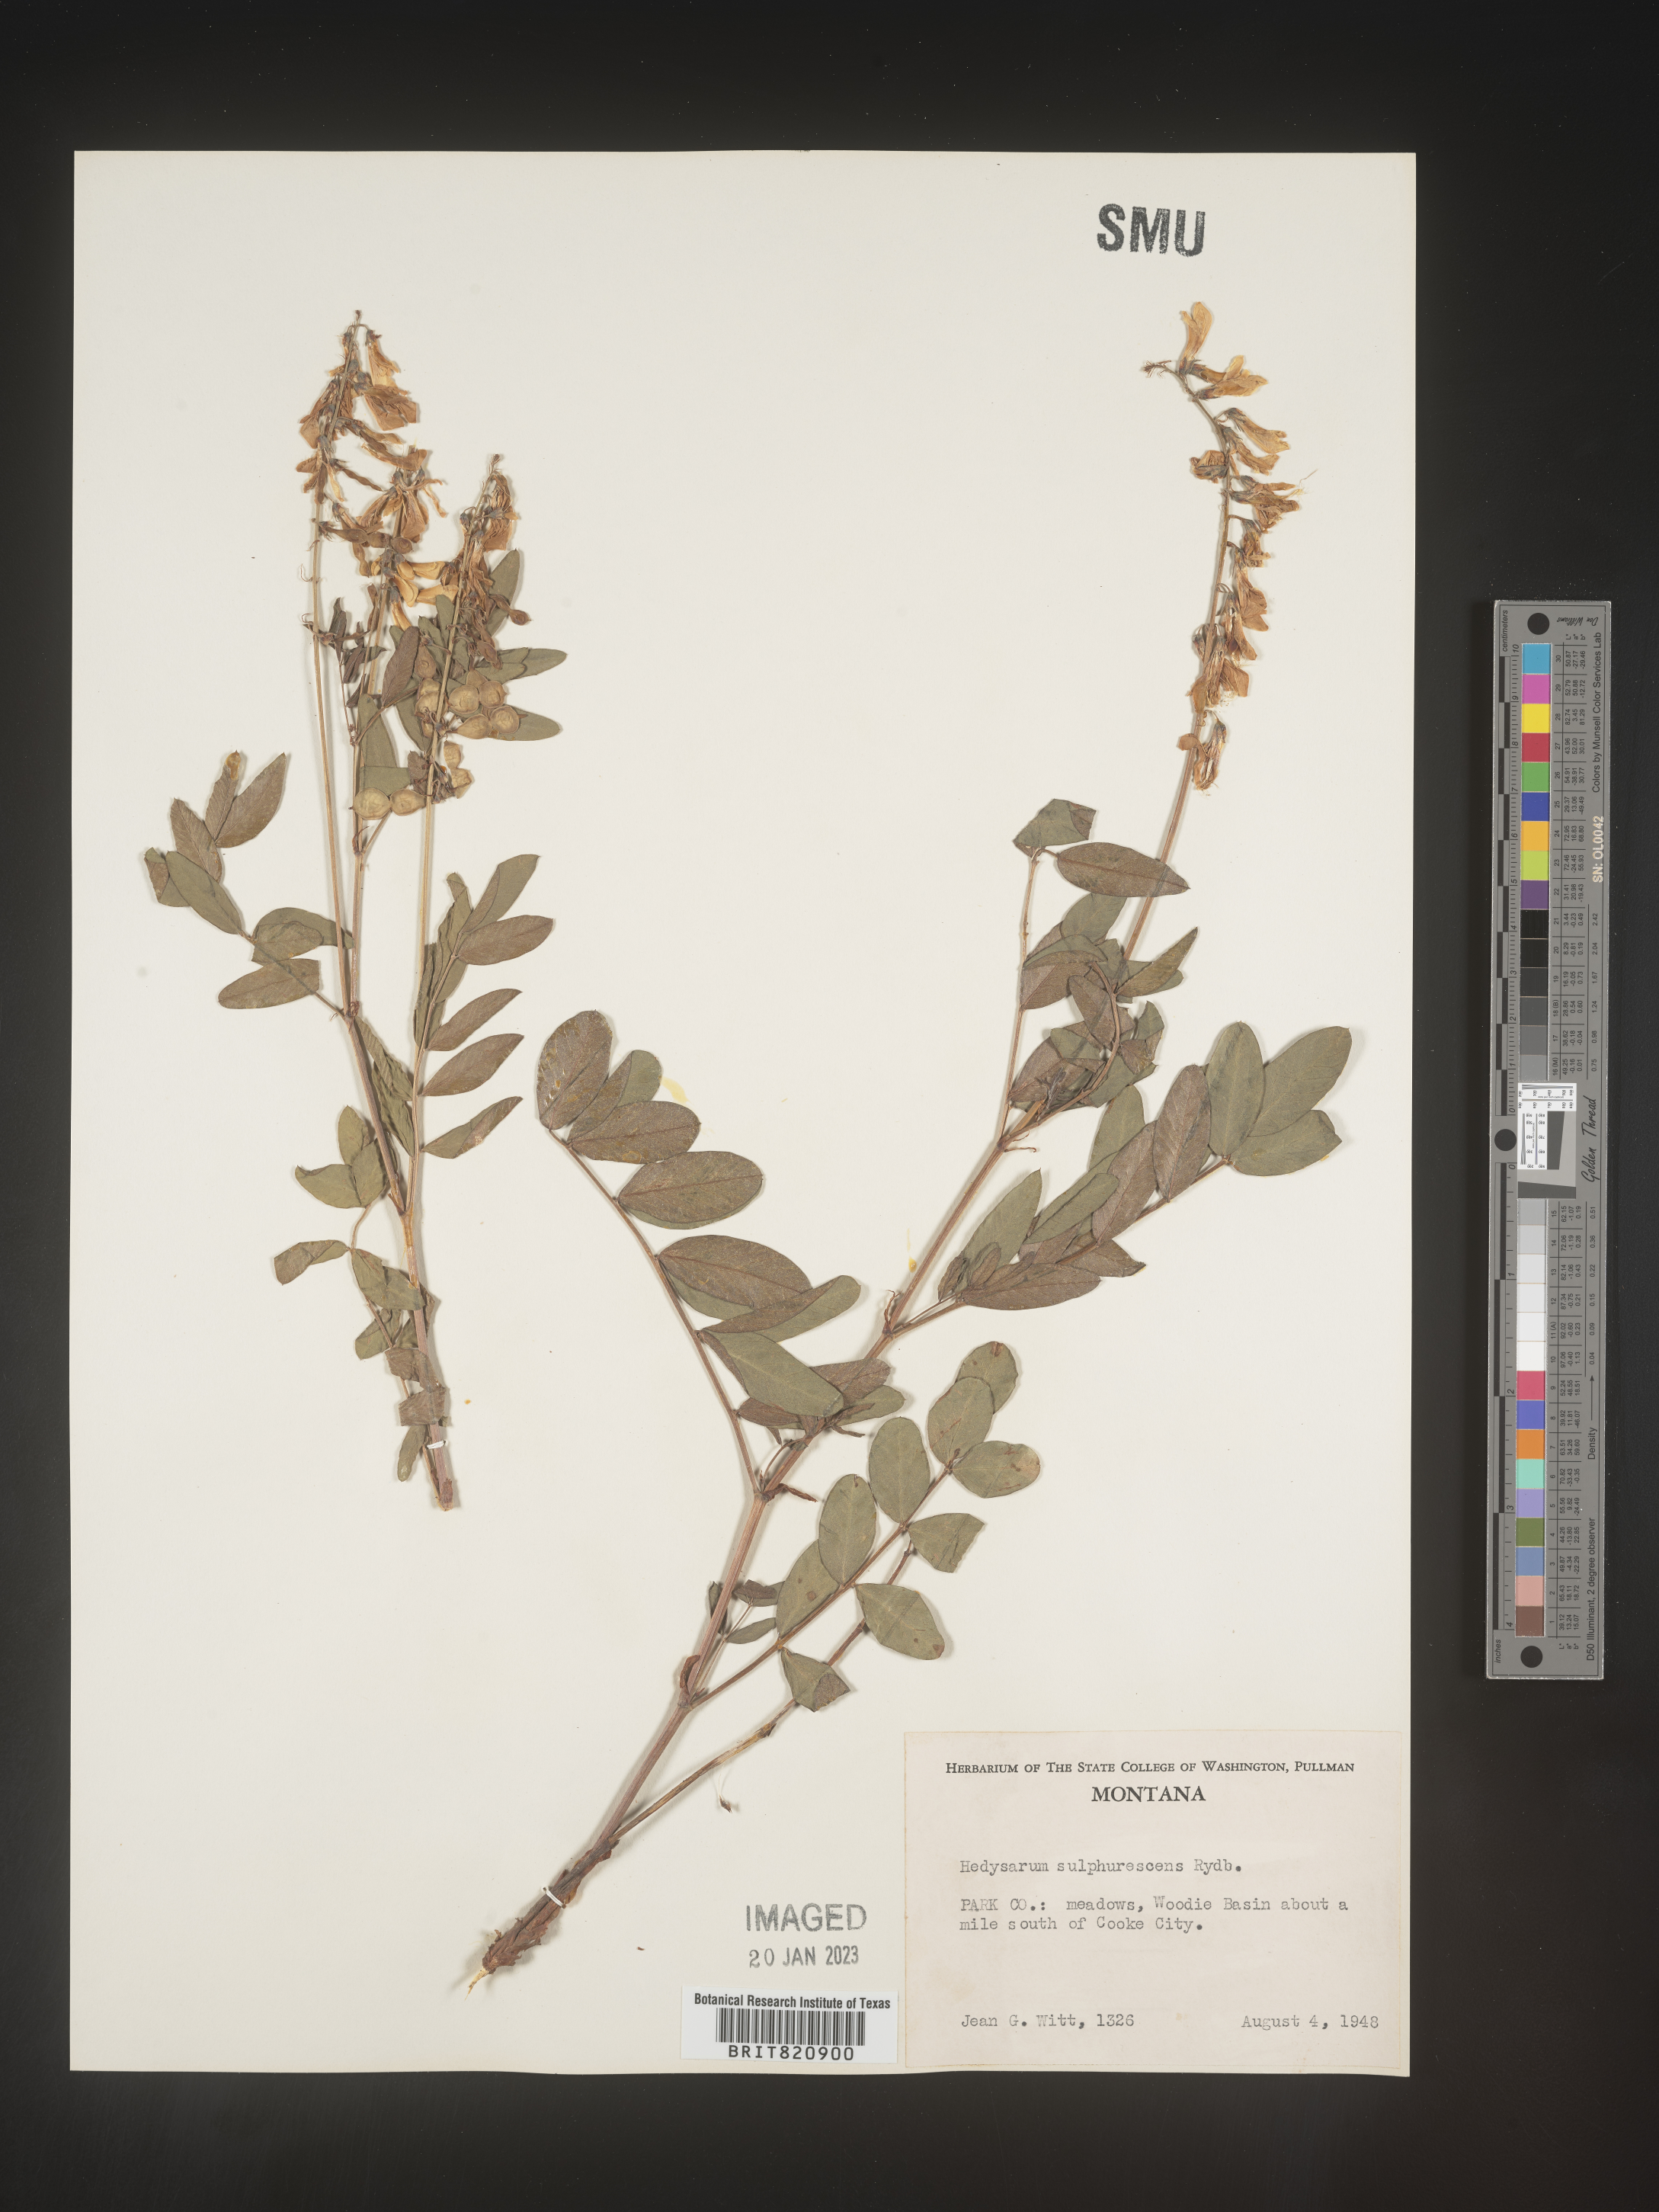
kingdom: Plantae
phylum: Tracheophyta
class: Magnoliopsida
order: Fabales
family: Fabaceae
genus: Hedysarum
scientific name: Hedysarum sulphurescens
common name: Sulphur hedysarum
